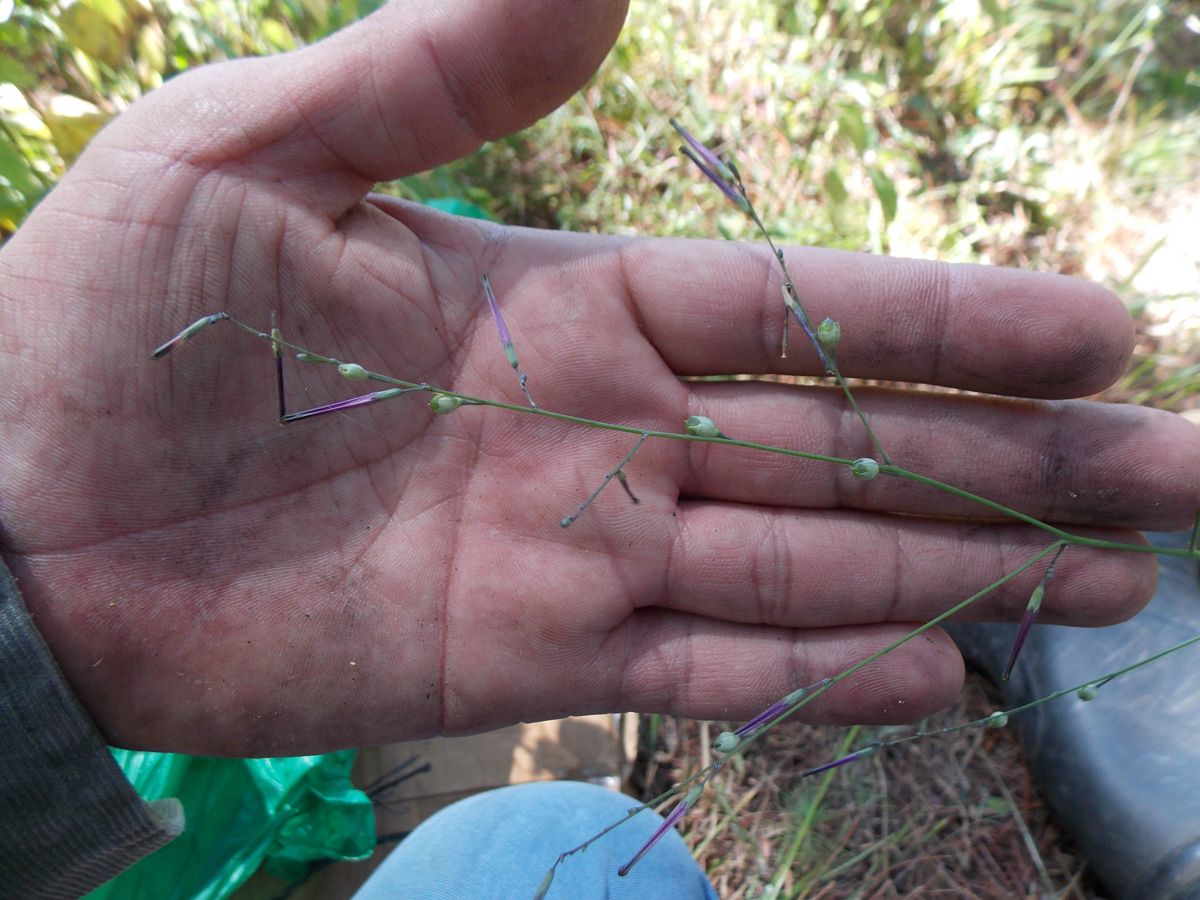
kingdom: Plantae
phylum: Tracheophyta
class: Magnoliopsida
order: Solanales
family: Solanaceae
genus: Schwenckia
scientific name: Schwenckia americana
